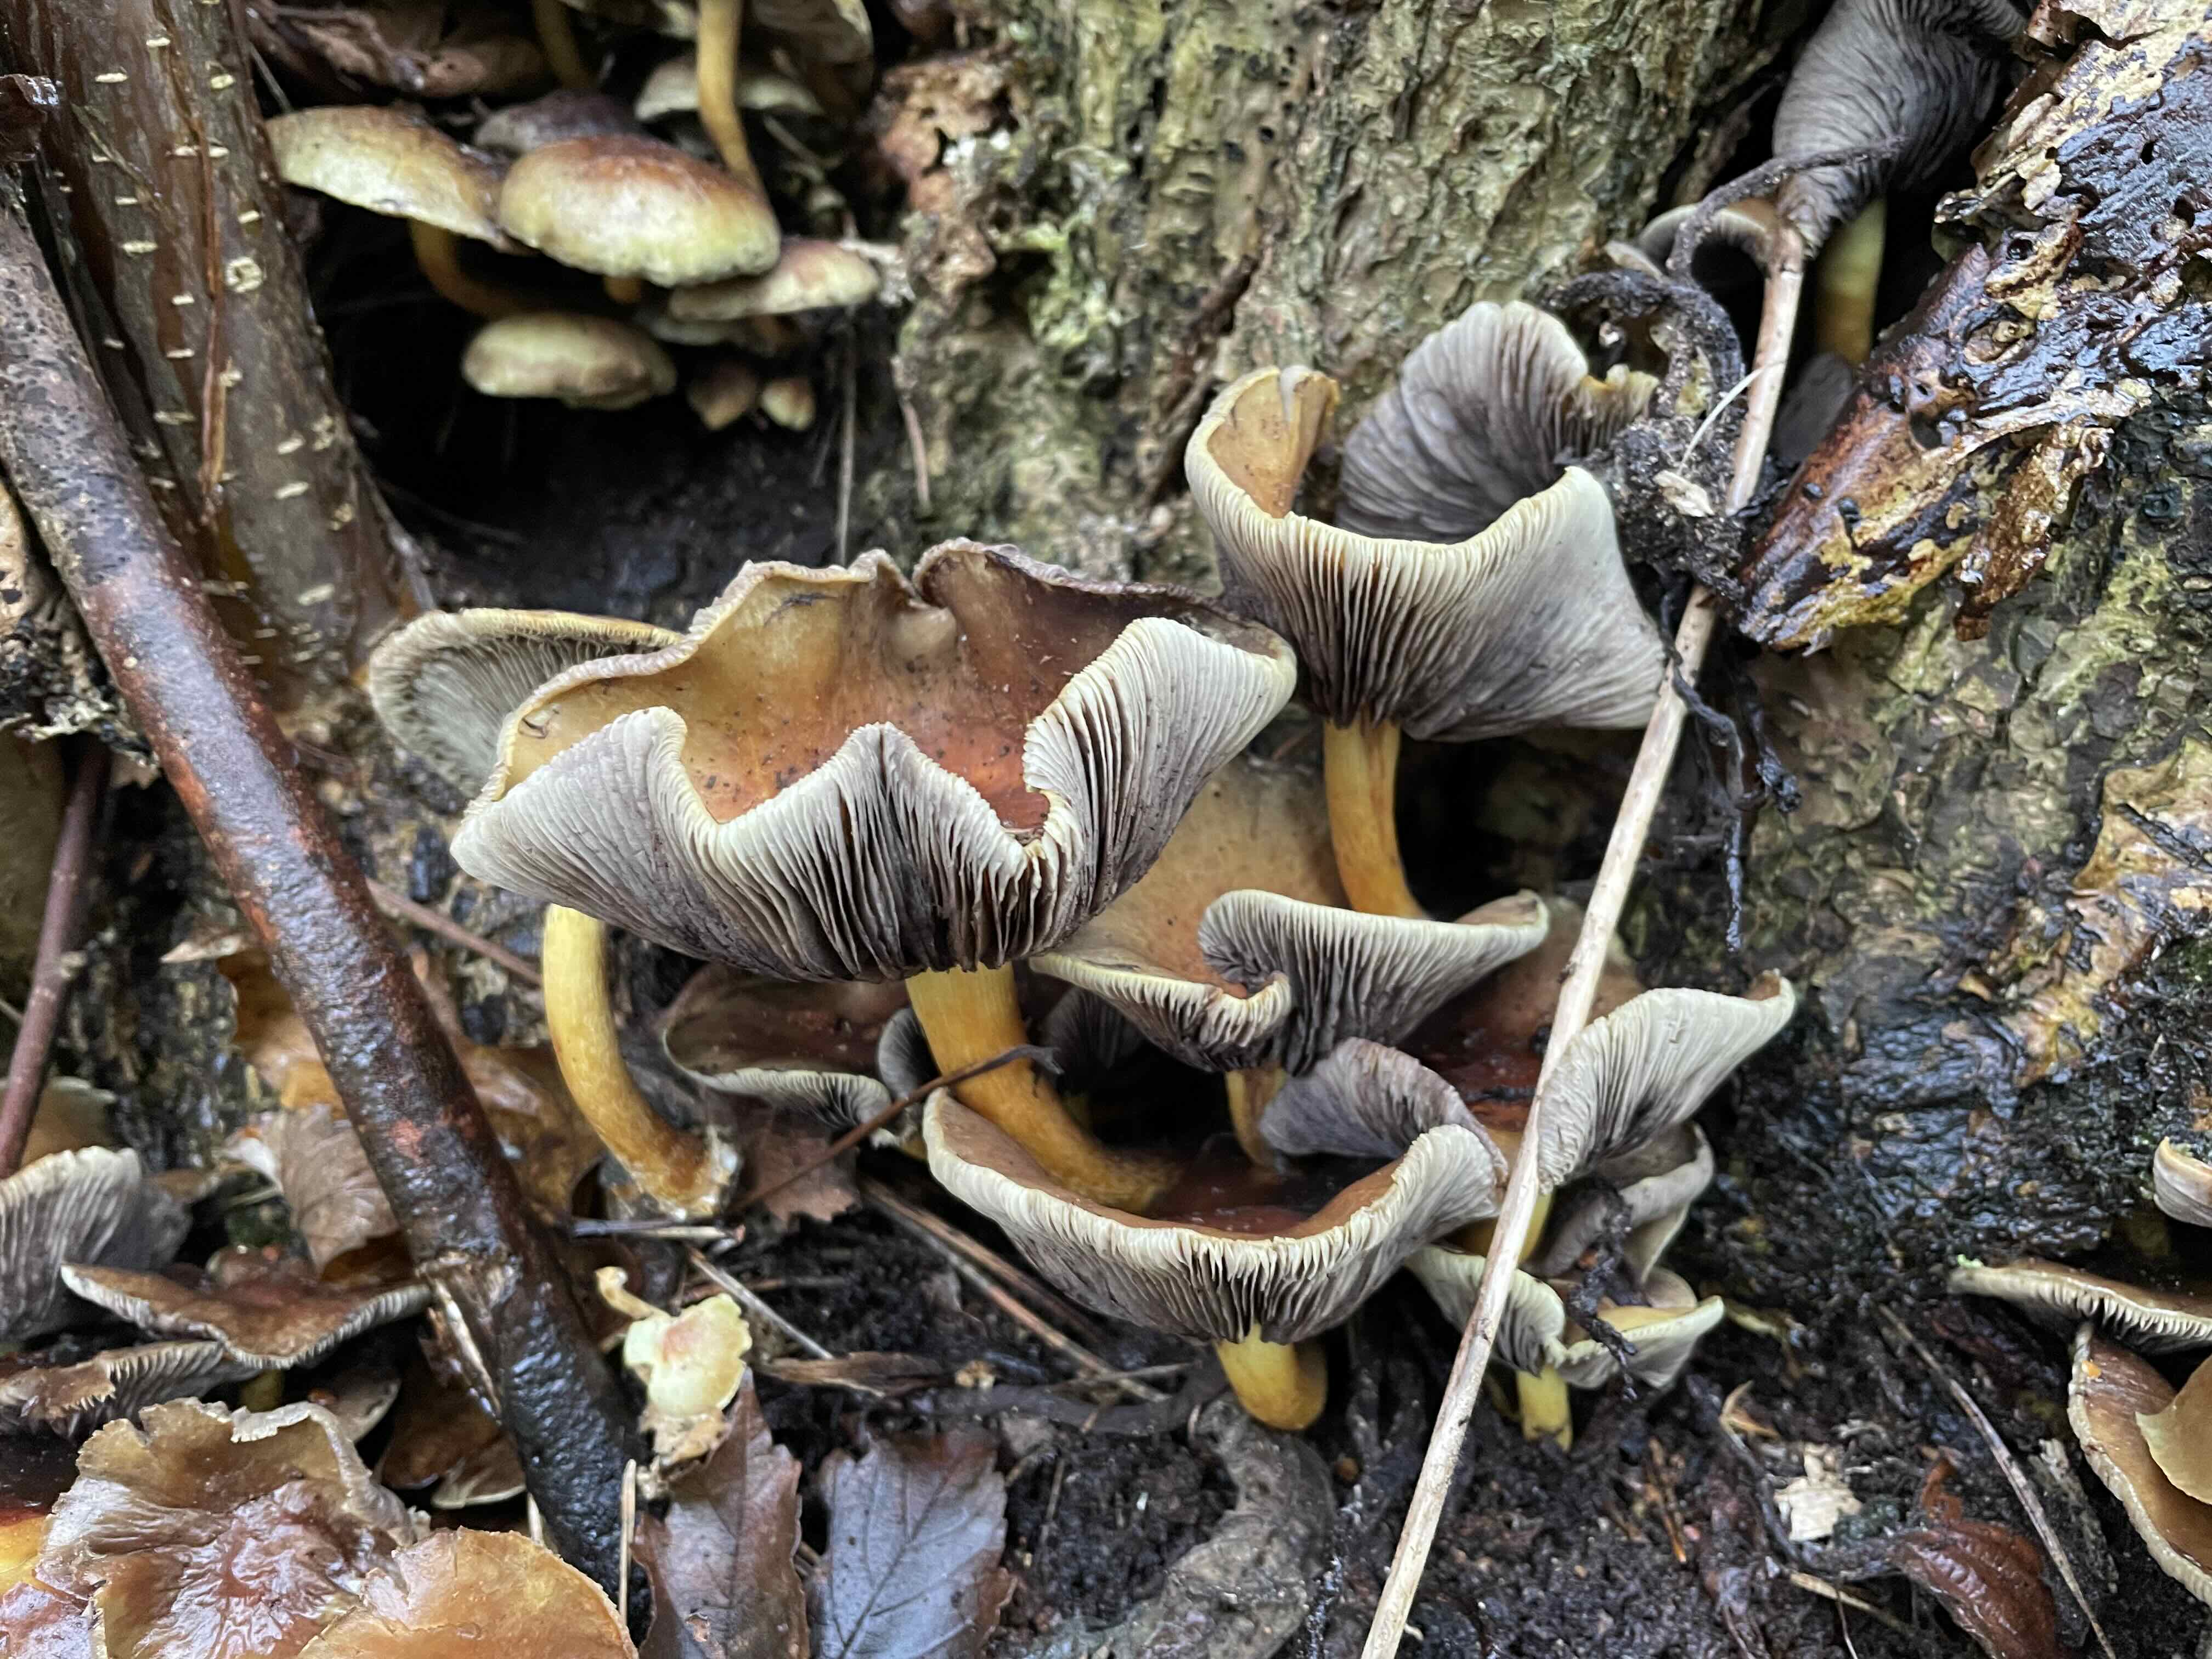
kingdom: Fungi
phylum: Basidiomycota
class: Agaricomycetes
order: Agaricales
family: Strophariaceae
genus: Hypholoma
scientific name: Hypholoma fasciculare
